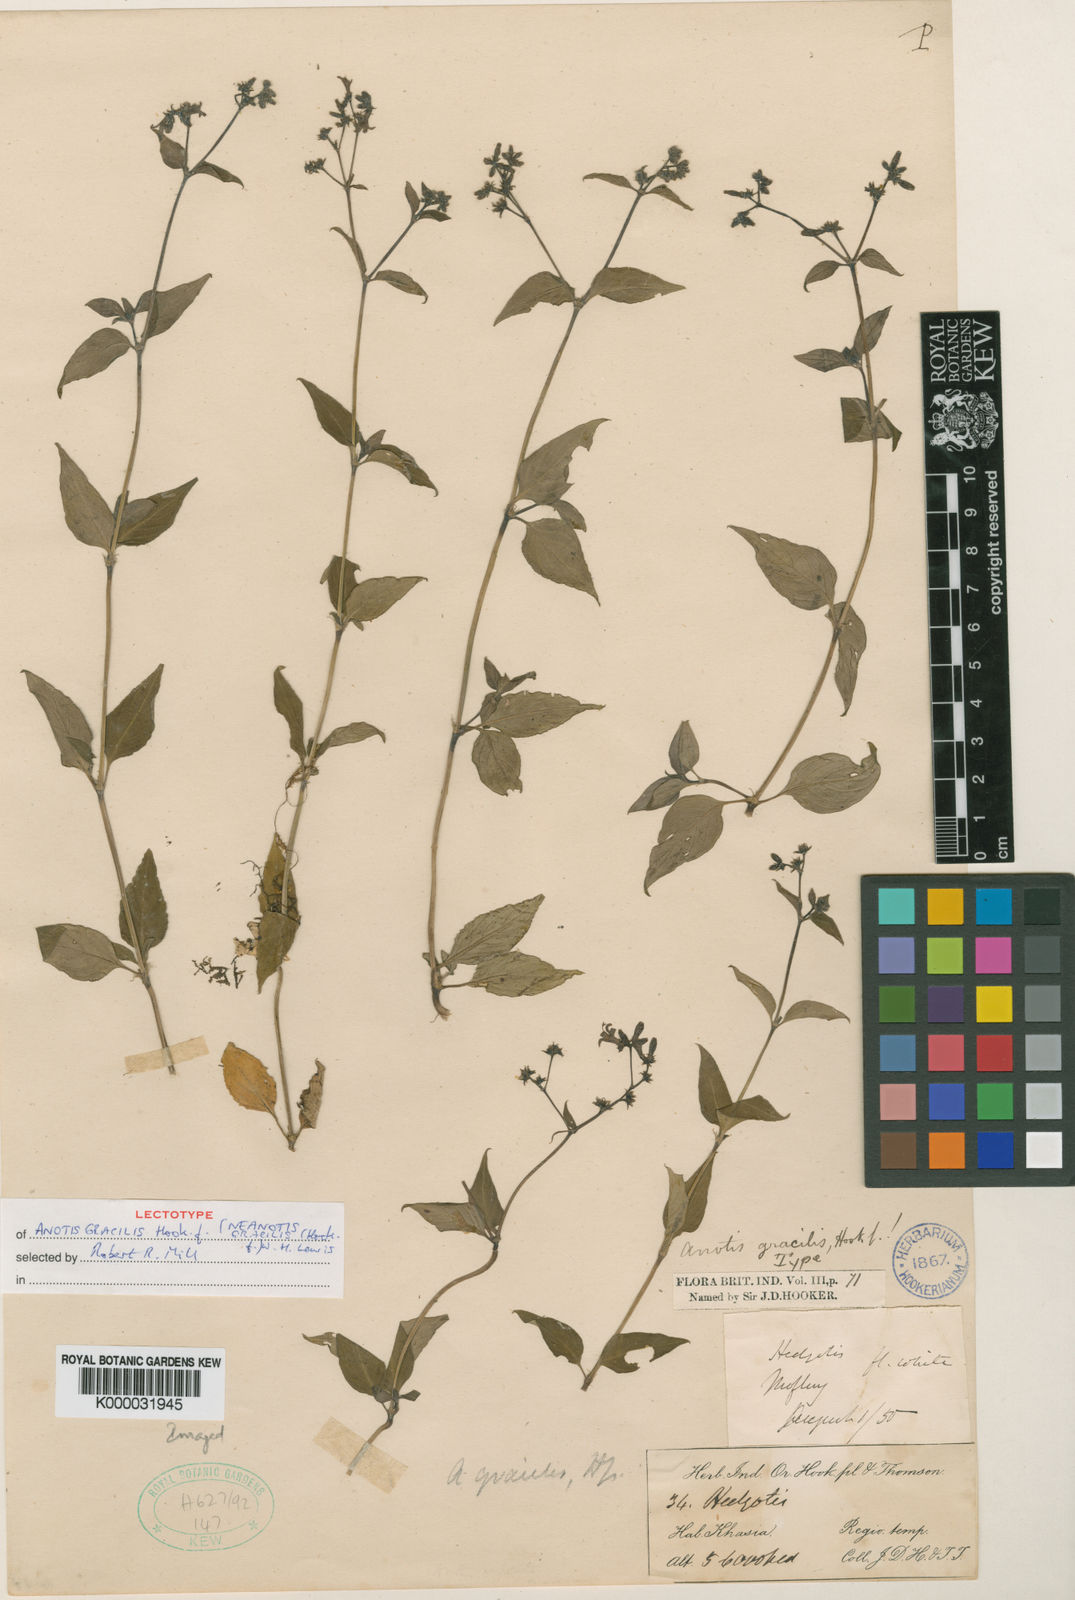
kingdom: Plantae
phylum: Tracheophyta
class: Magnoliopsida
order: Gentianales
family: Rubiaceae
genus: Neanotis
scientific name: Neanotis ingrata
